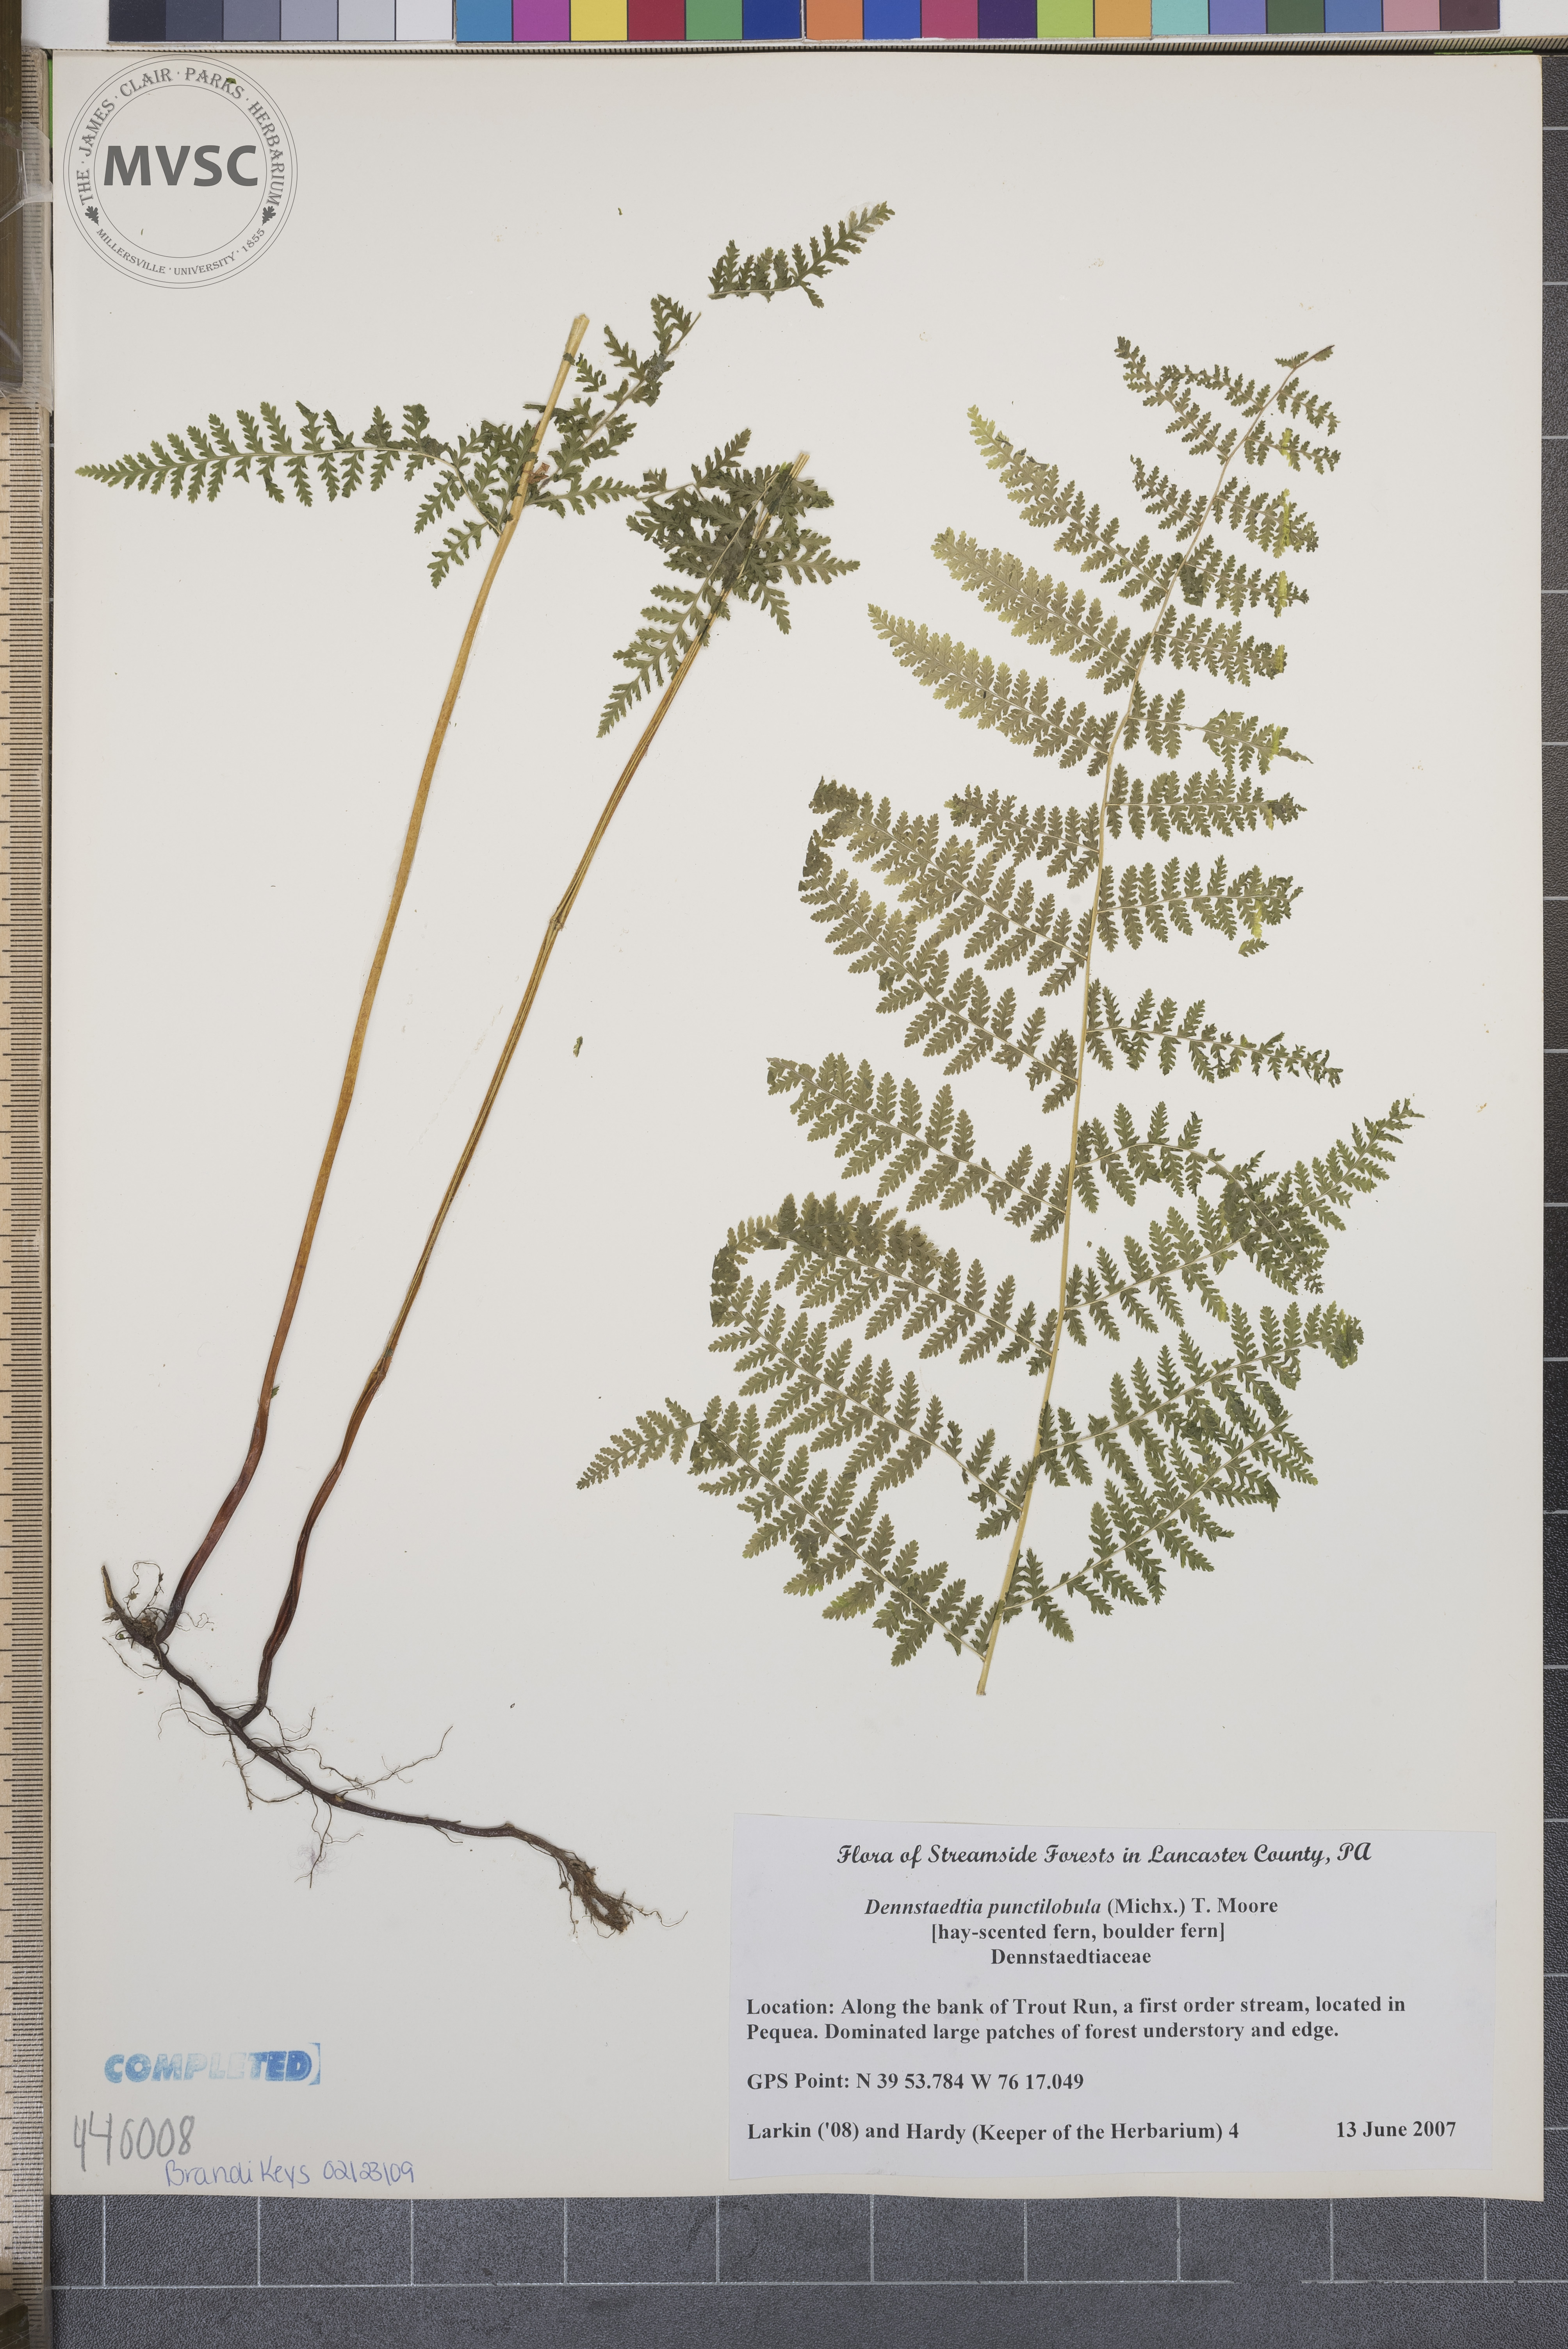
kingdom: Plantae
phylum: Tracheophyta
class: Polypodiopsida
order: Polypodiales
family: Dennstaedtiaceae
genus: Sitobolium
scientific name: Sitobolium punctilobum
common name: Hay-scented fern
